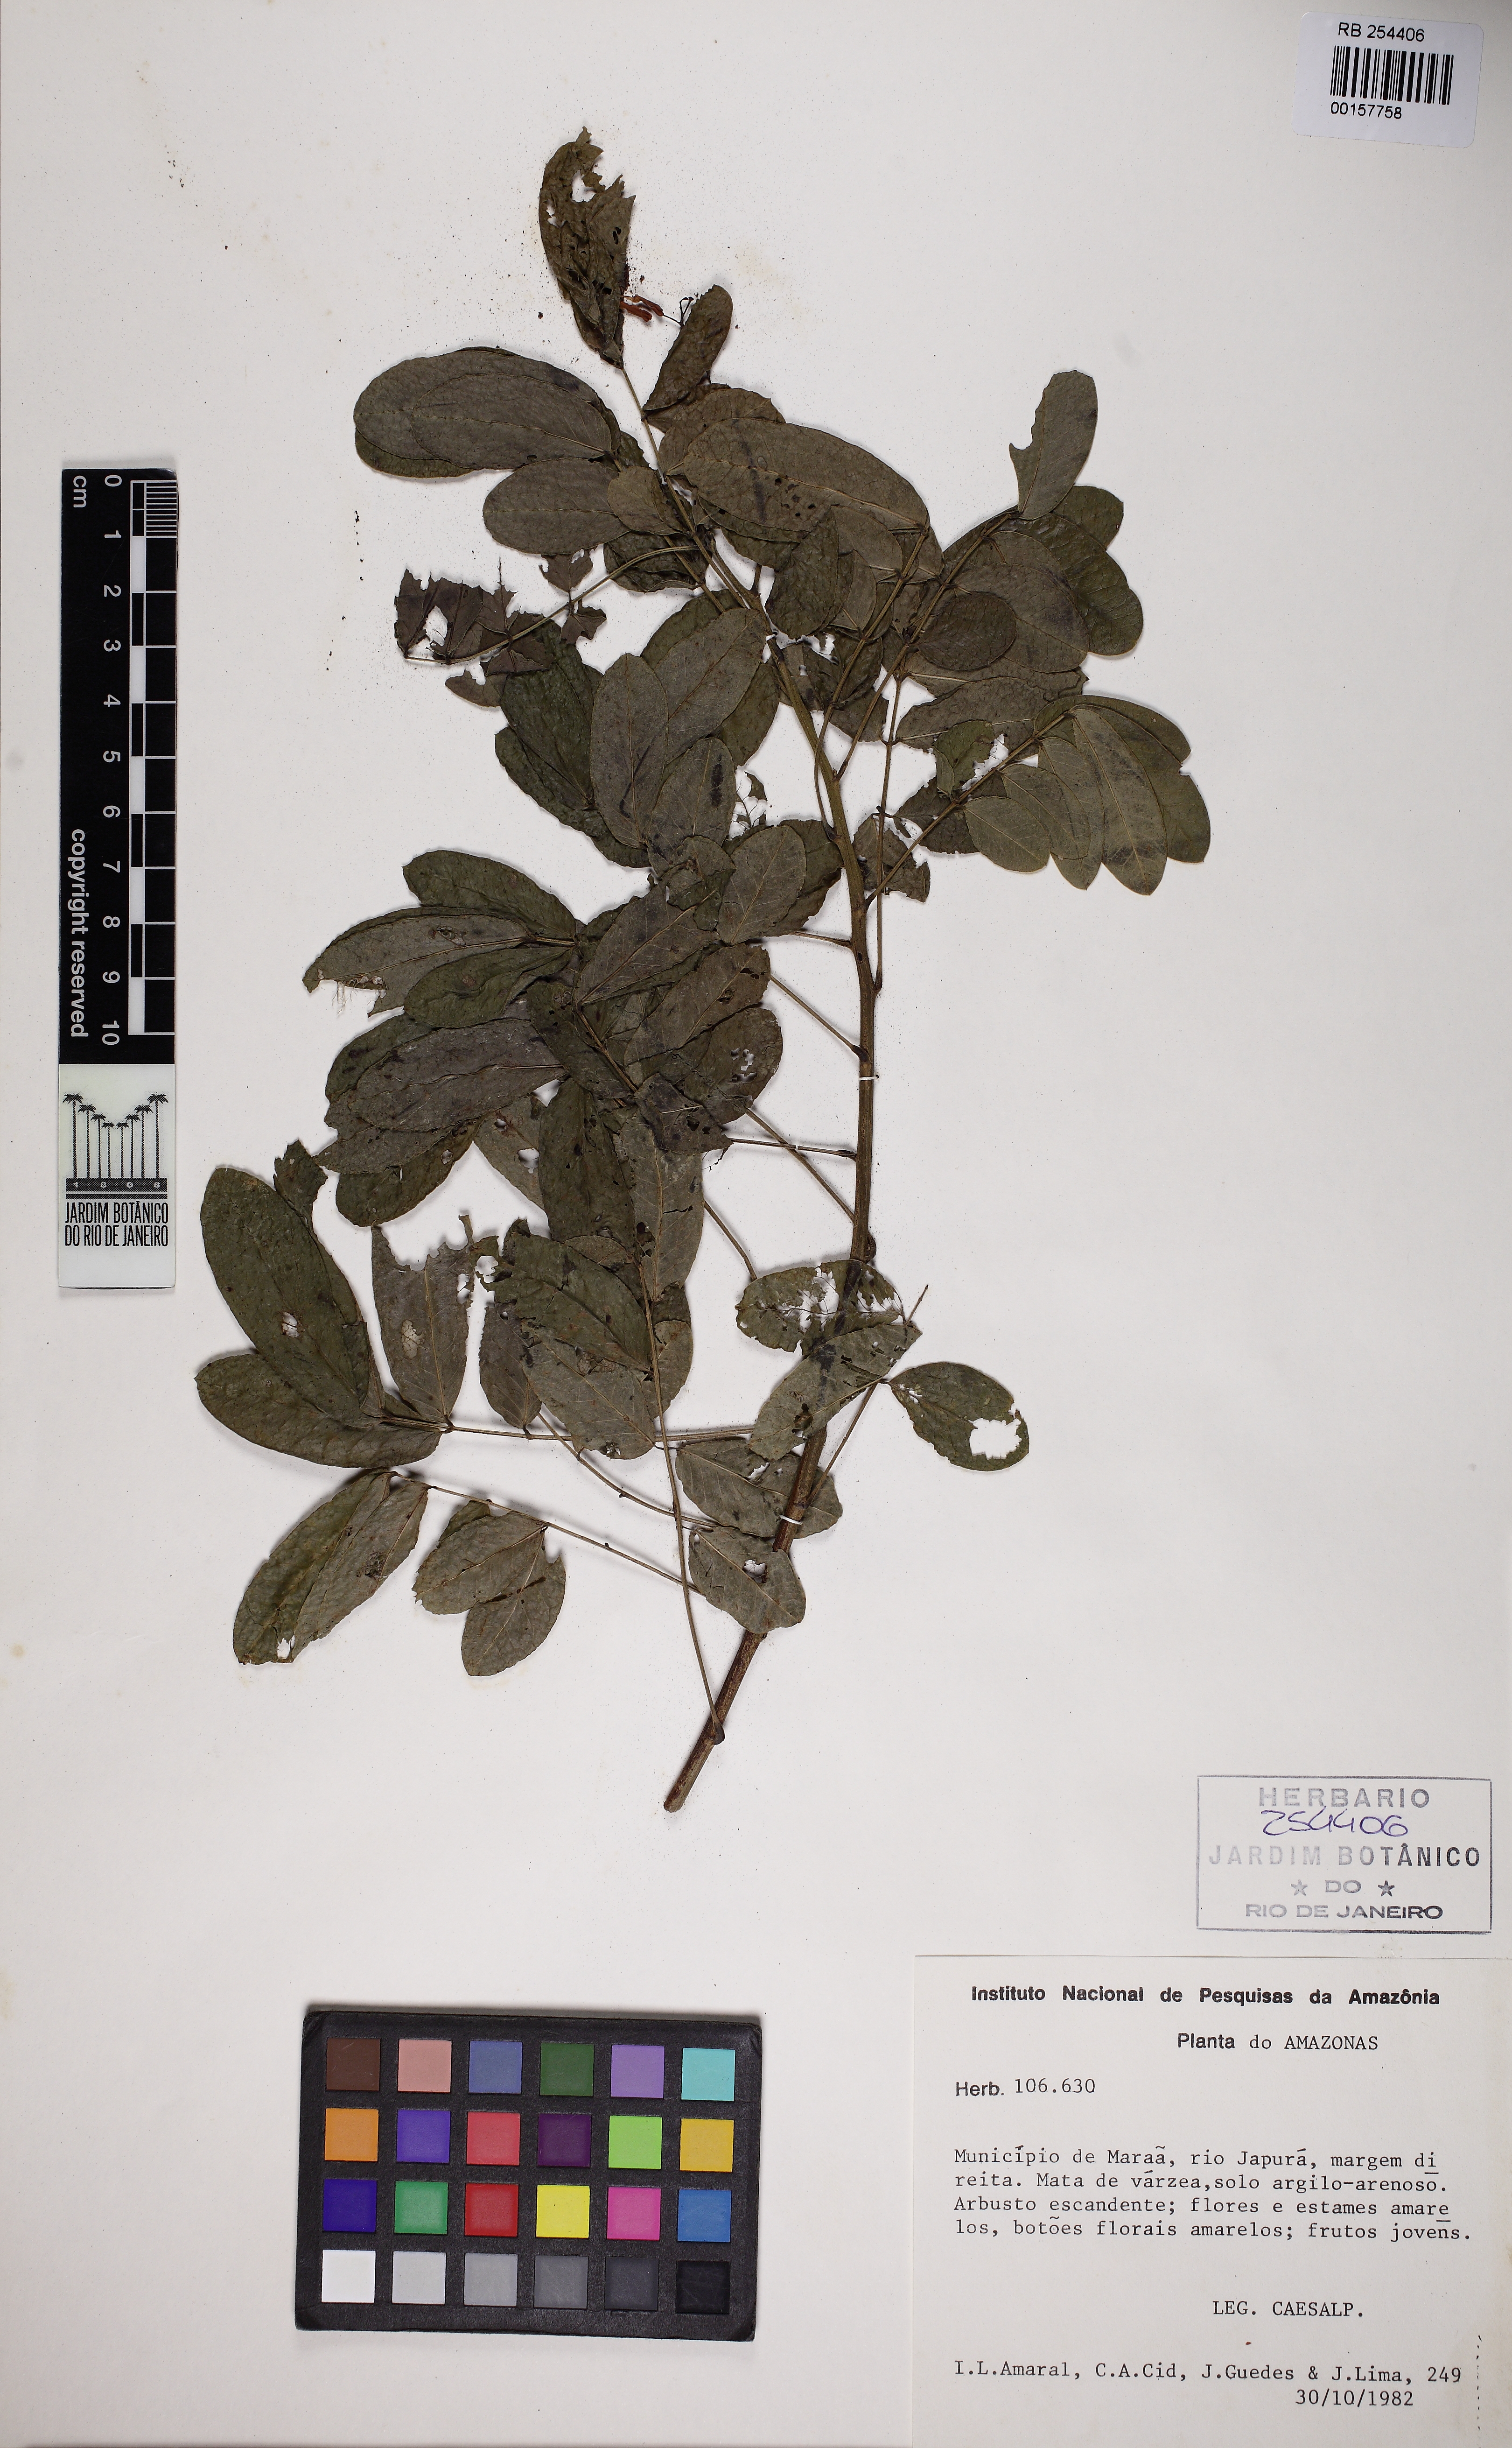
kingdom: Plantae
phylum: Tracheophyta
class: Magnoliopsida
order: Fabales
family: Fabaceae
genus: Senna
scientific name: Senna neglecta
